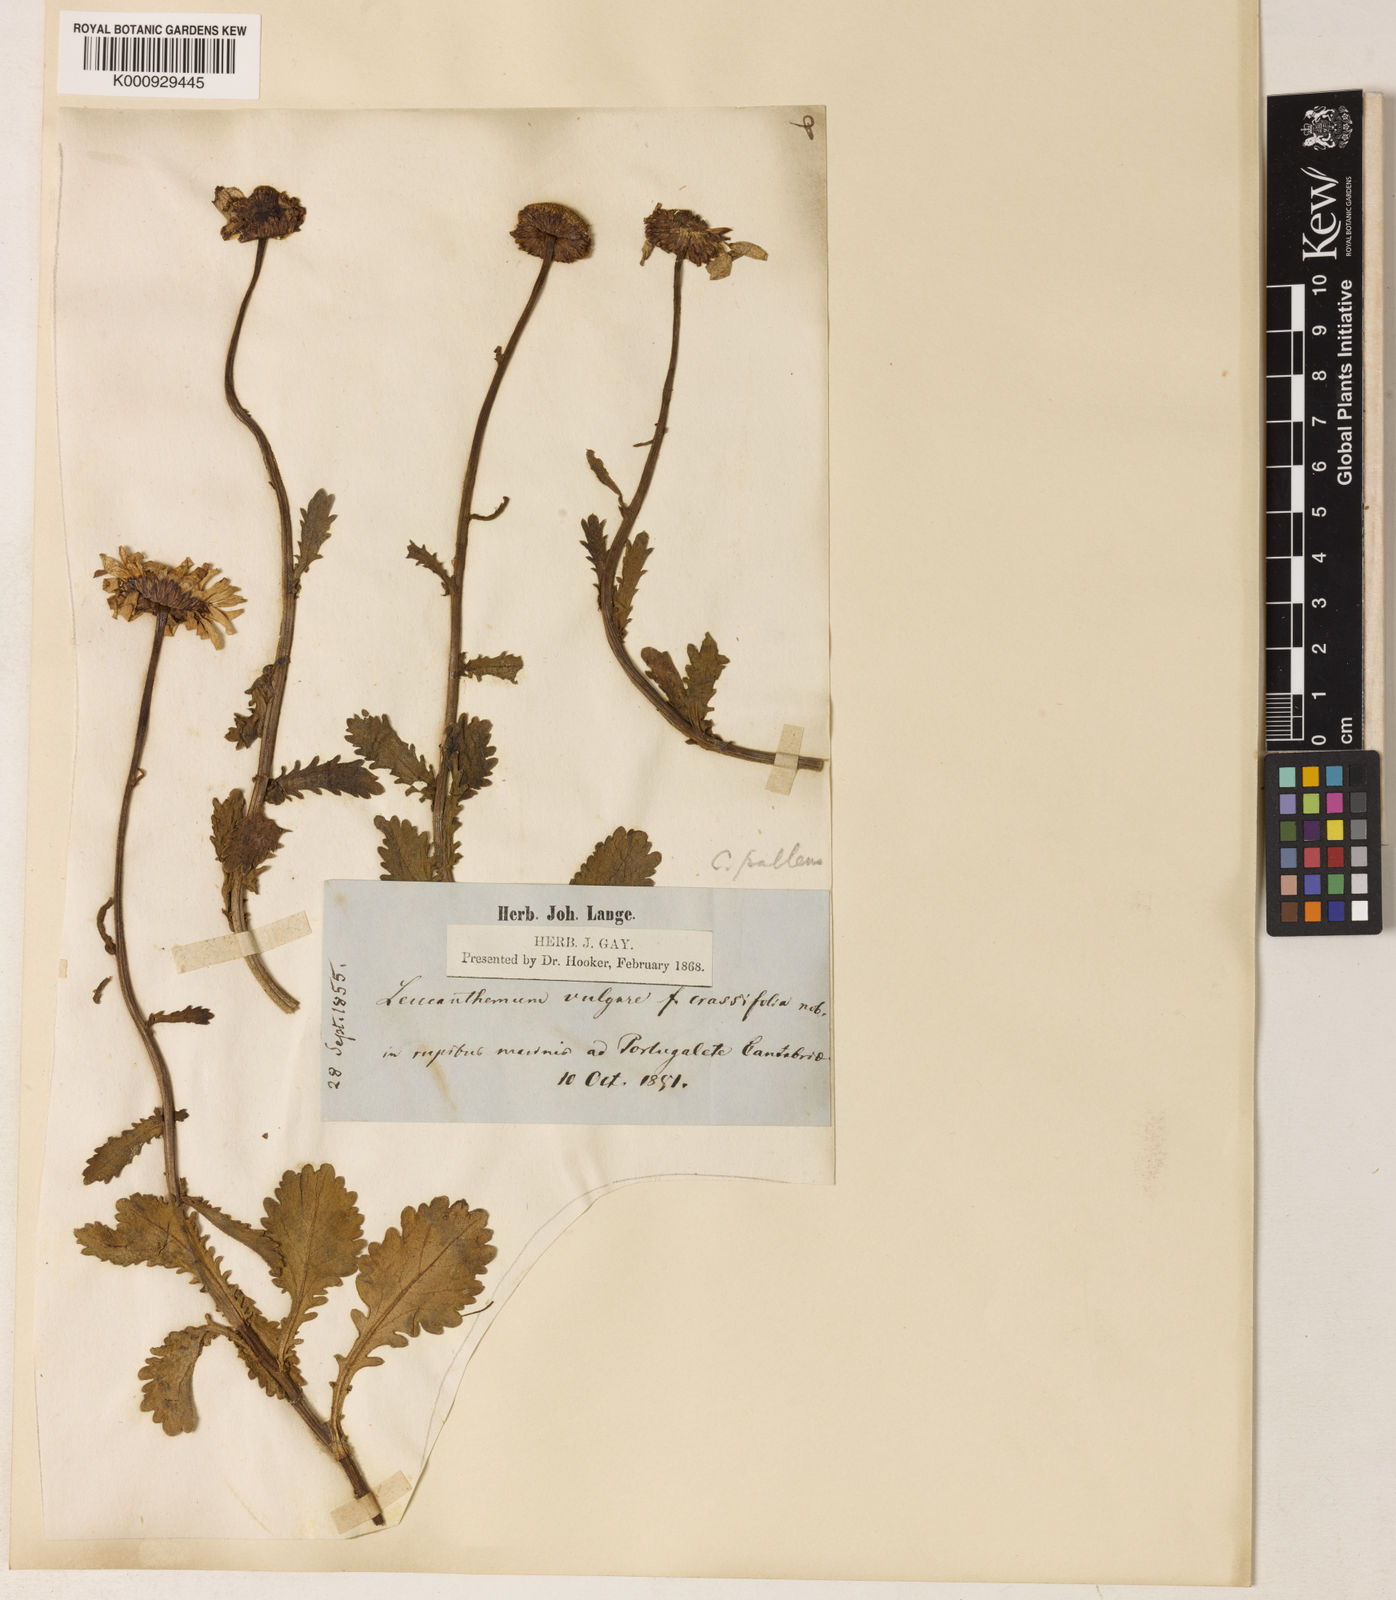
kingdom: Plantae
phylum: Tracheophyta
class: Magnoliopsida
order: Asterales
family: Asteraceae
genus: Leucanthemum
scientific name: Leucanthemum crassifolium
